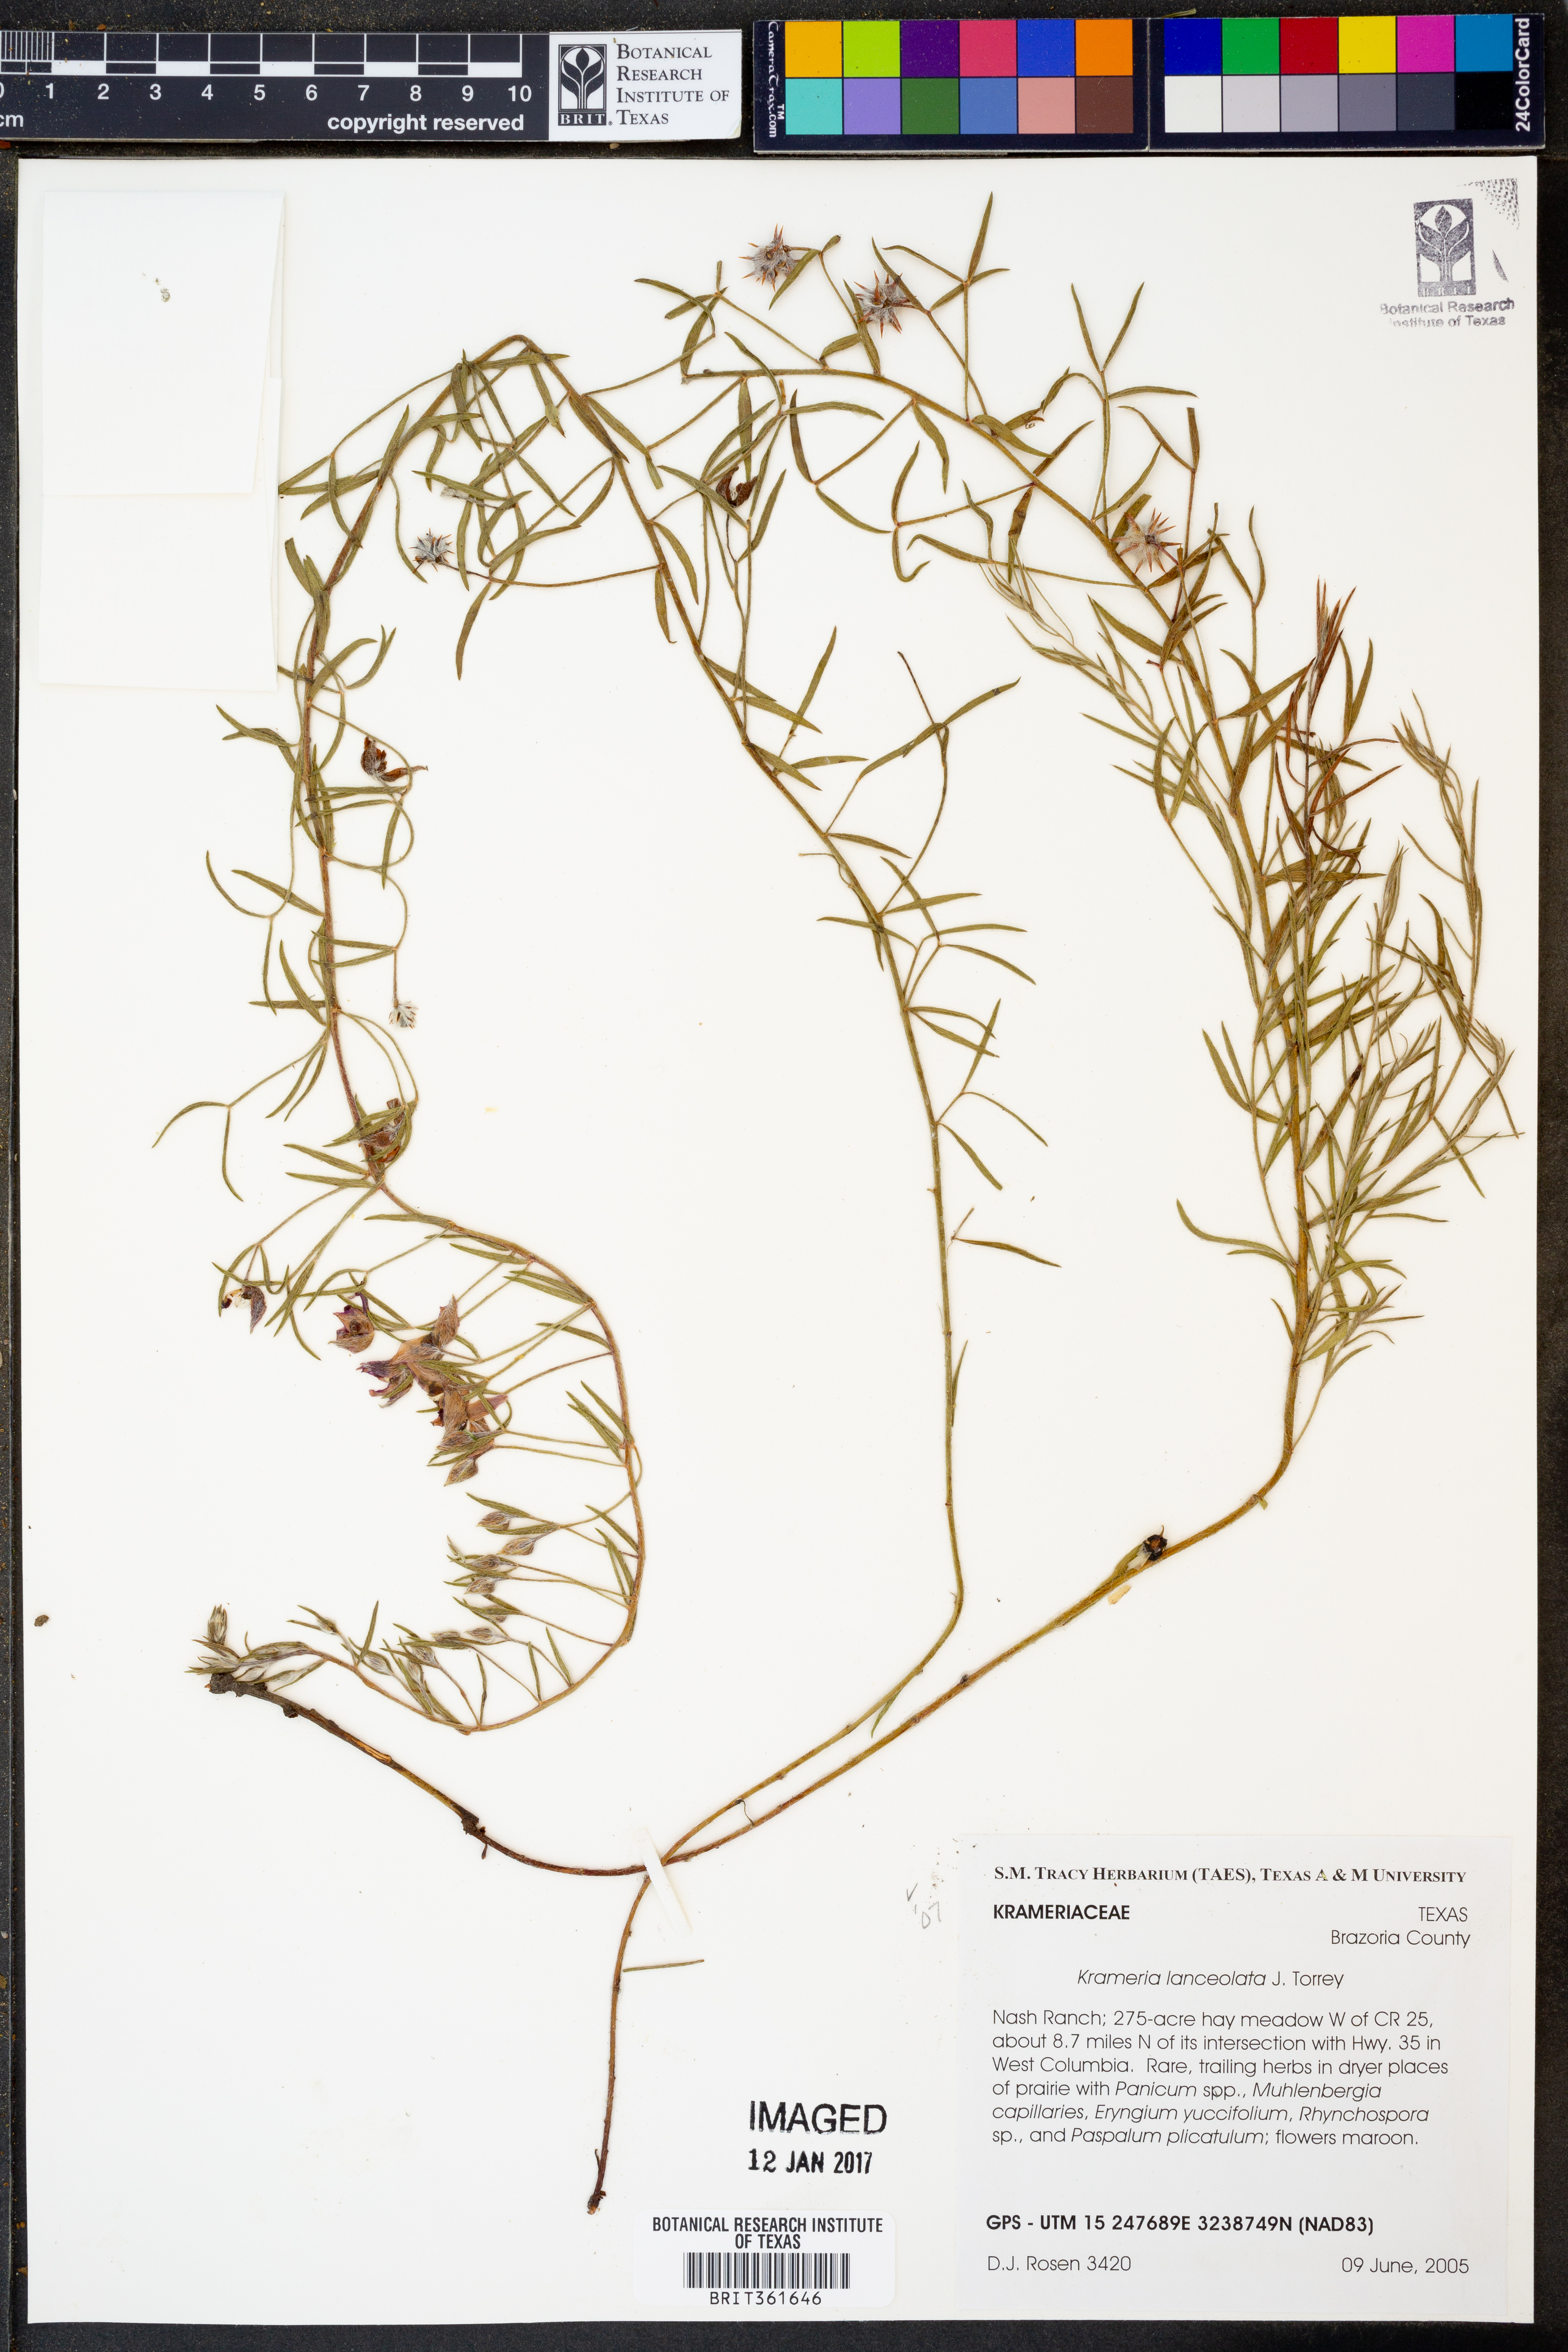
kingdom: Plantae
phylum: Tracheophyta
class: Magnoliopsida
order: Zygophyllales
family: Krameriaceae
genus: Krameria
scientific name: Krameria lanceolata
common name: Ratany
